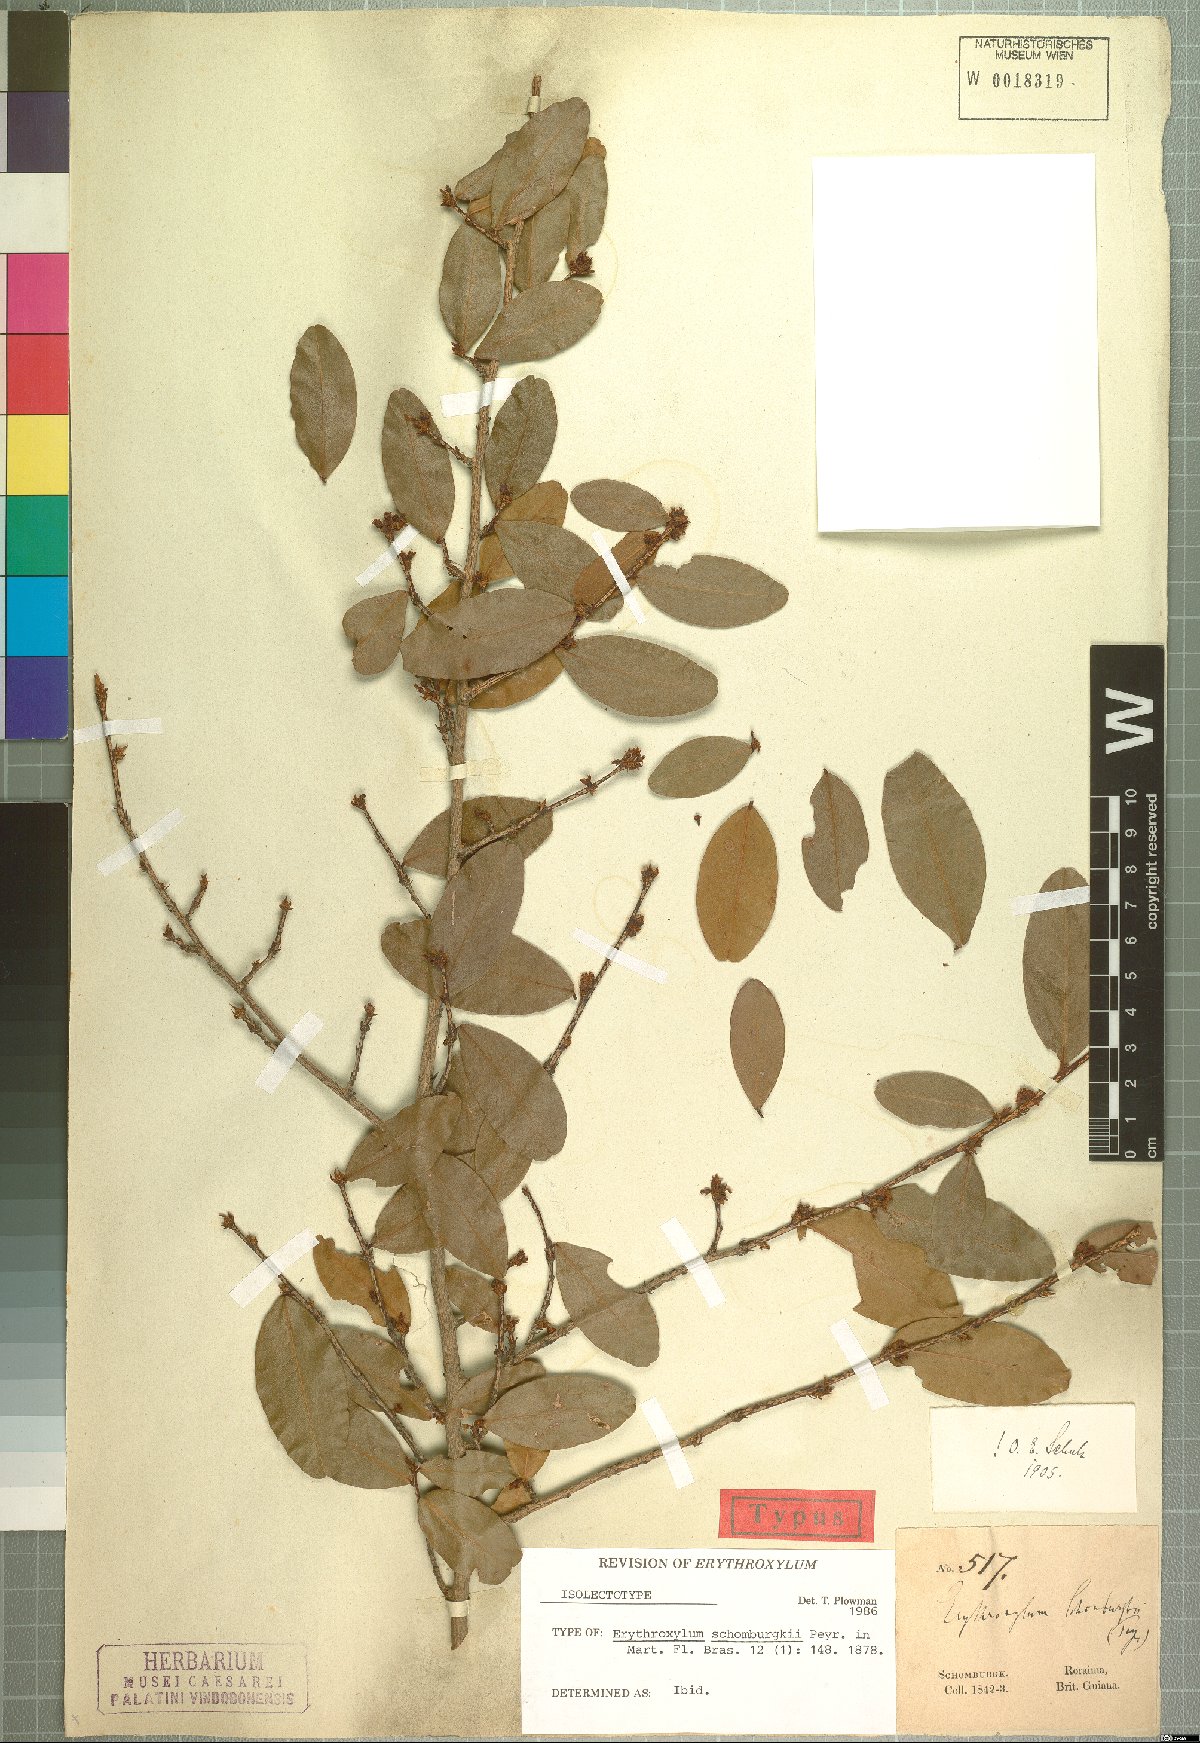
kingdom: Plantae
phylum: Tracheophyta
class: Magnoliopsida
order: Malpighiales
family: Erythroxylaceae
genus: Erythroxylum
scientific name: Erythroxylum schomburgkii
